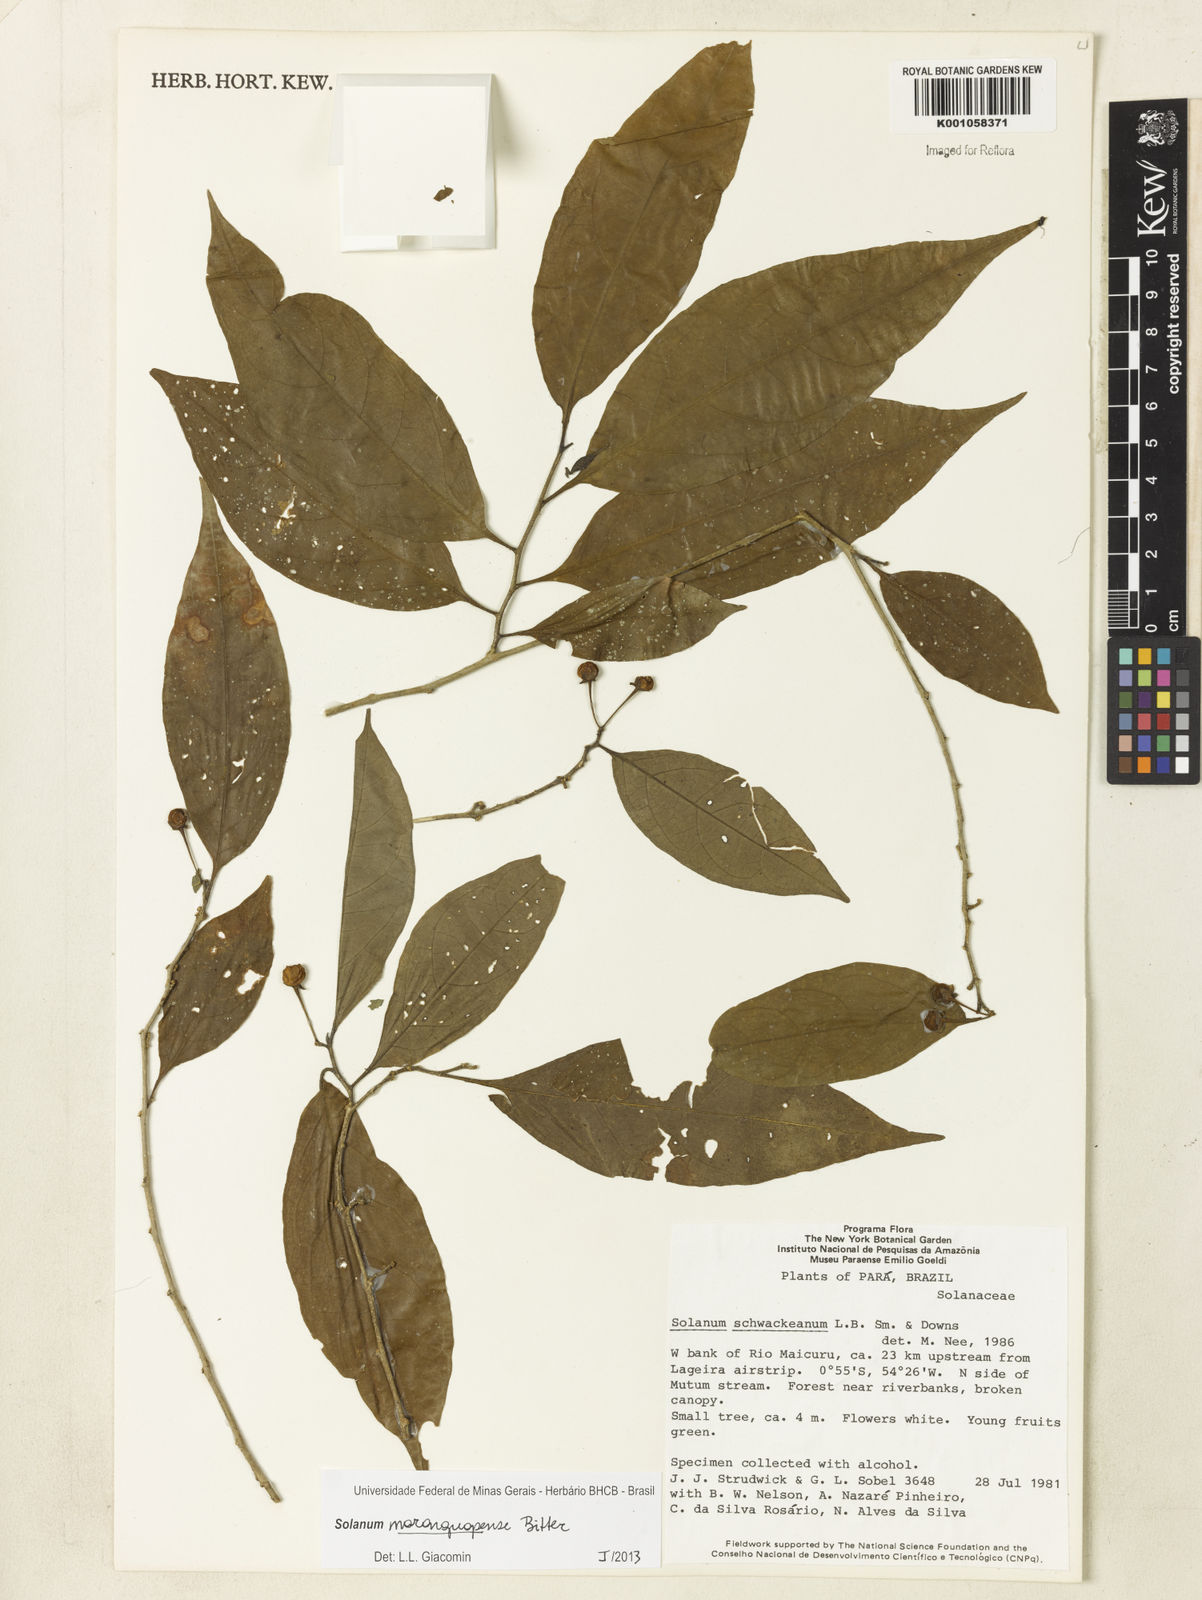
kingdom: Plantae
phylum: Tracheophyta
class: Magnoliopsida
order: Solanales
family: Solanaceae
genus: Solanum
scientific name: Solanum
